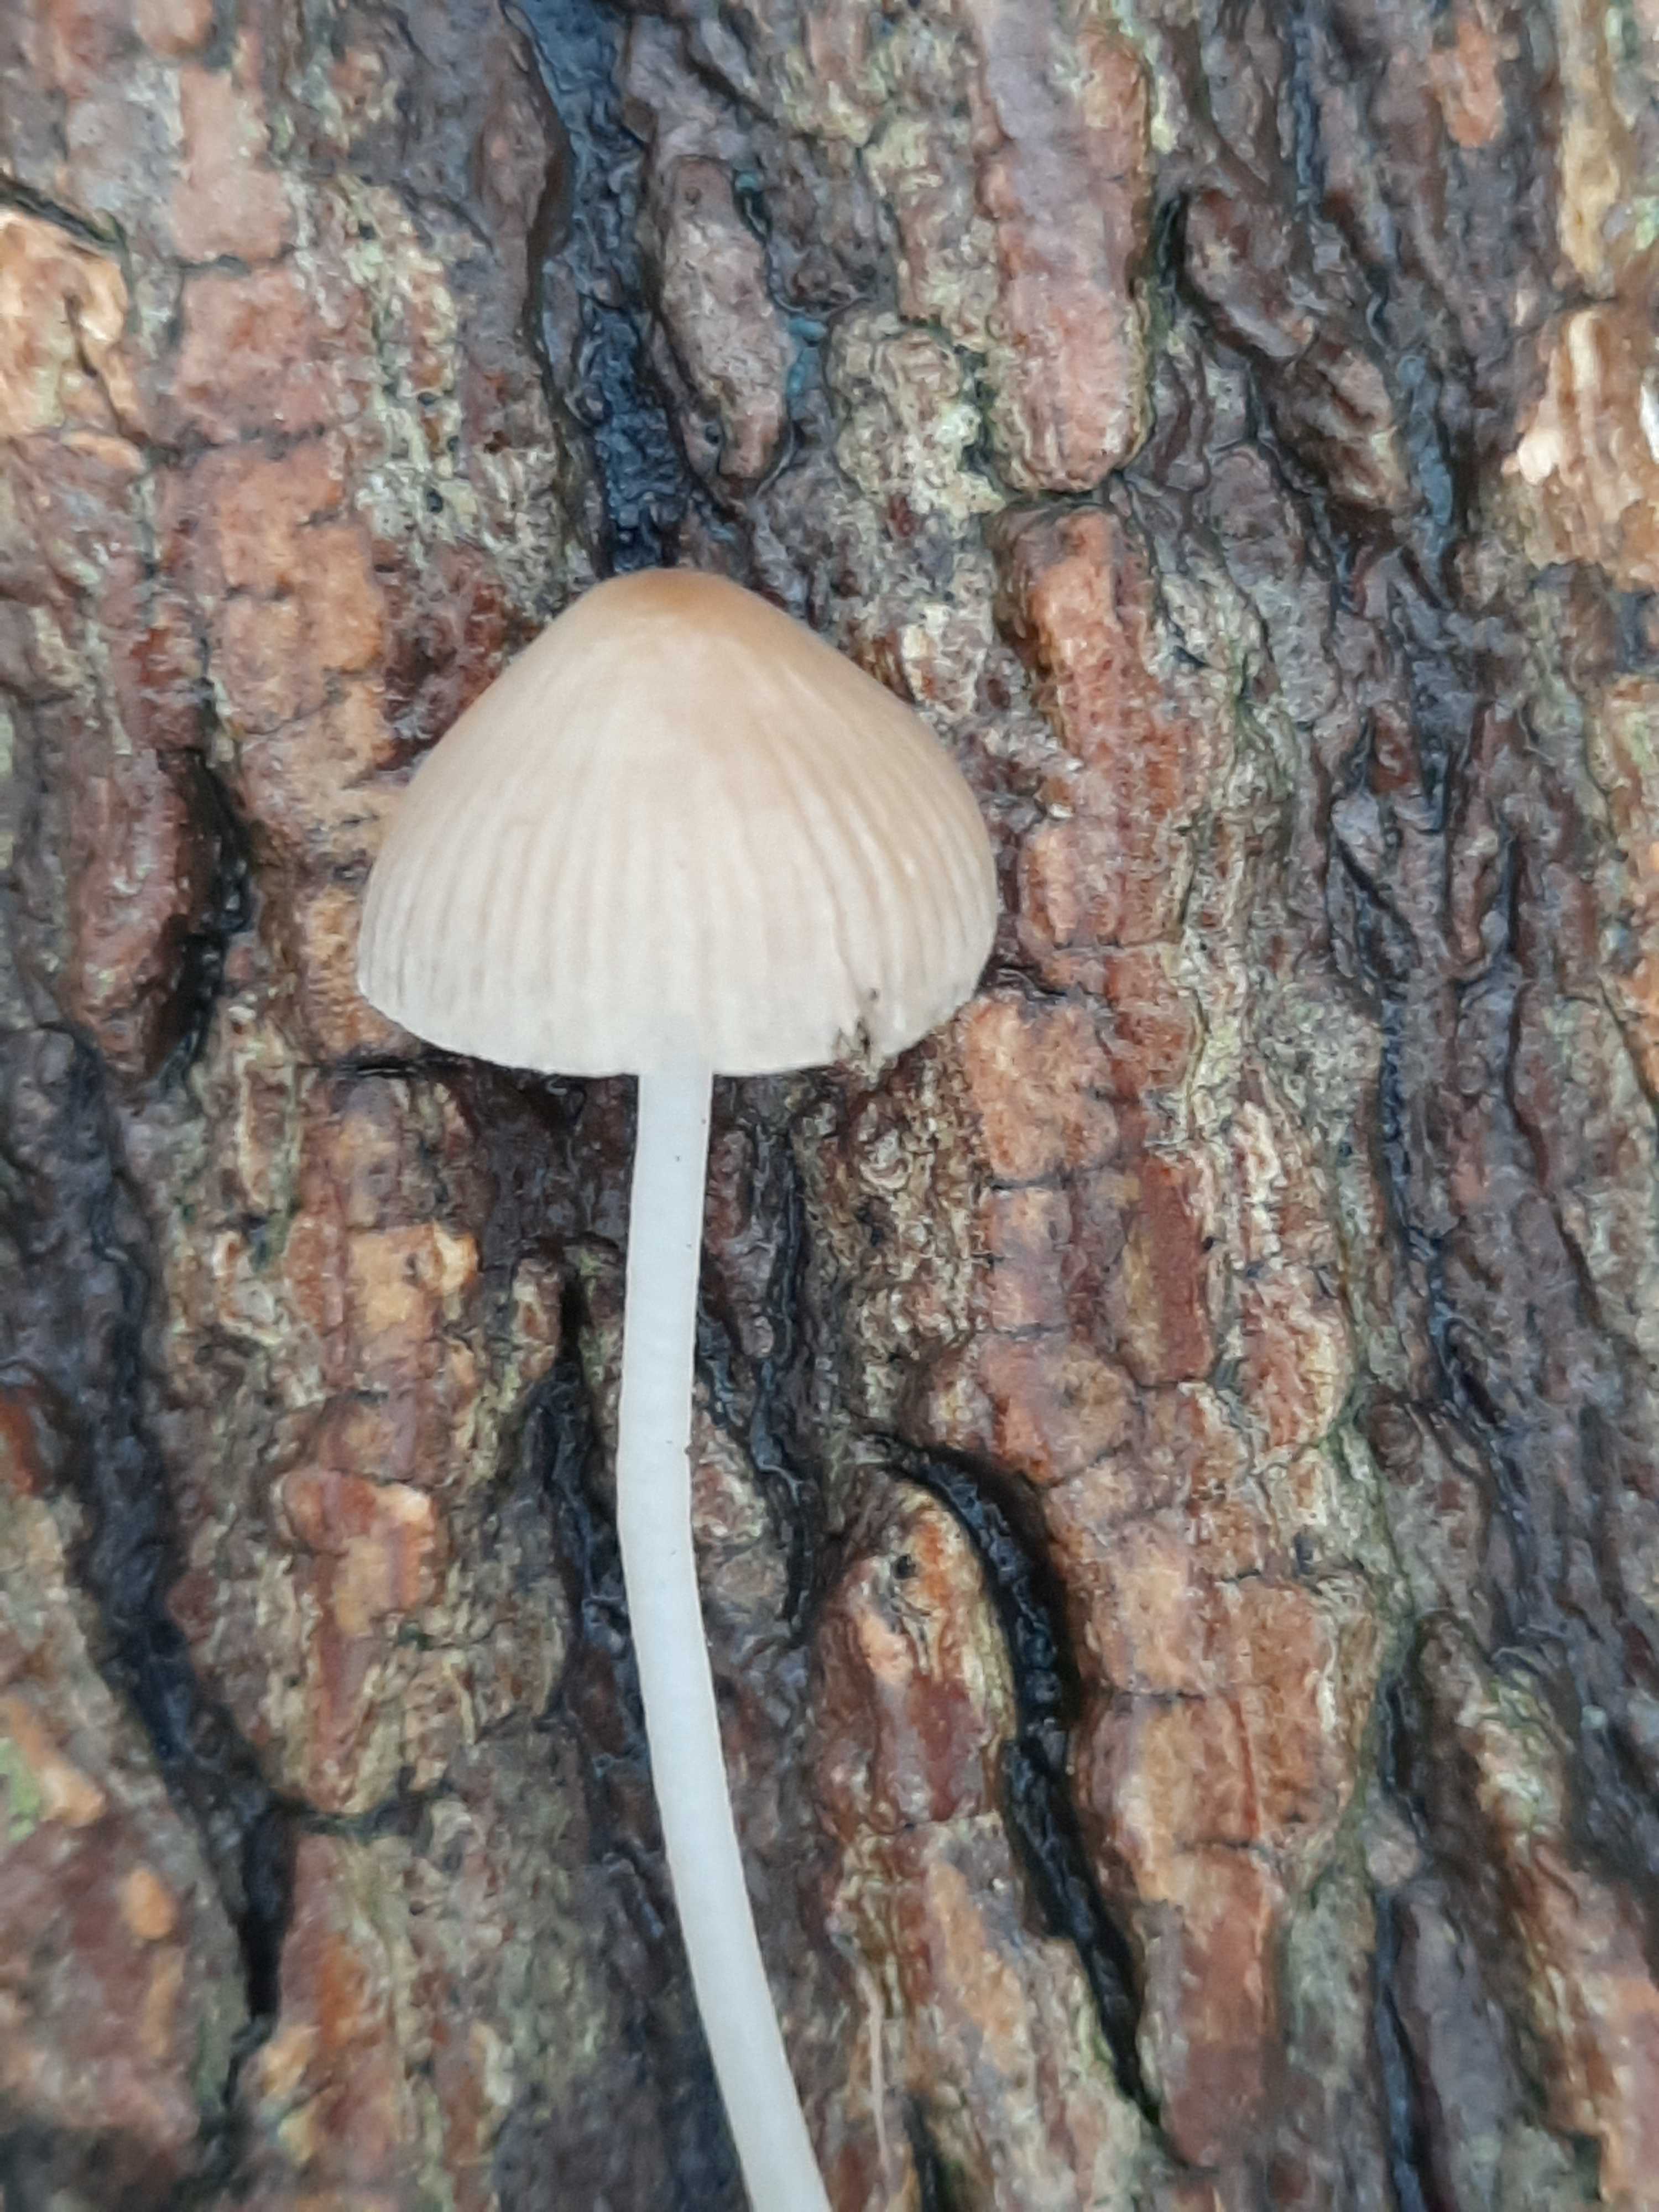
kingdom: Fungi
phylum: Basidiomycota
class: Agaricomycetes
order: Agaricales
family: Mycenaceae
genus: Mycena
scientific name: Mycena
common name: huesvamp
